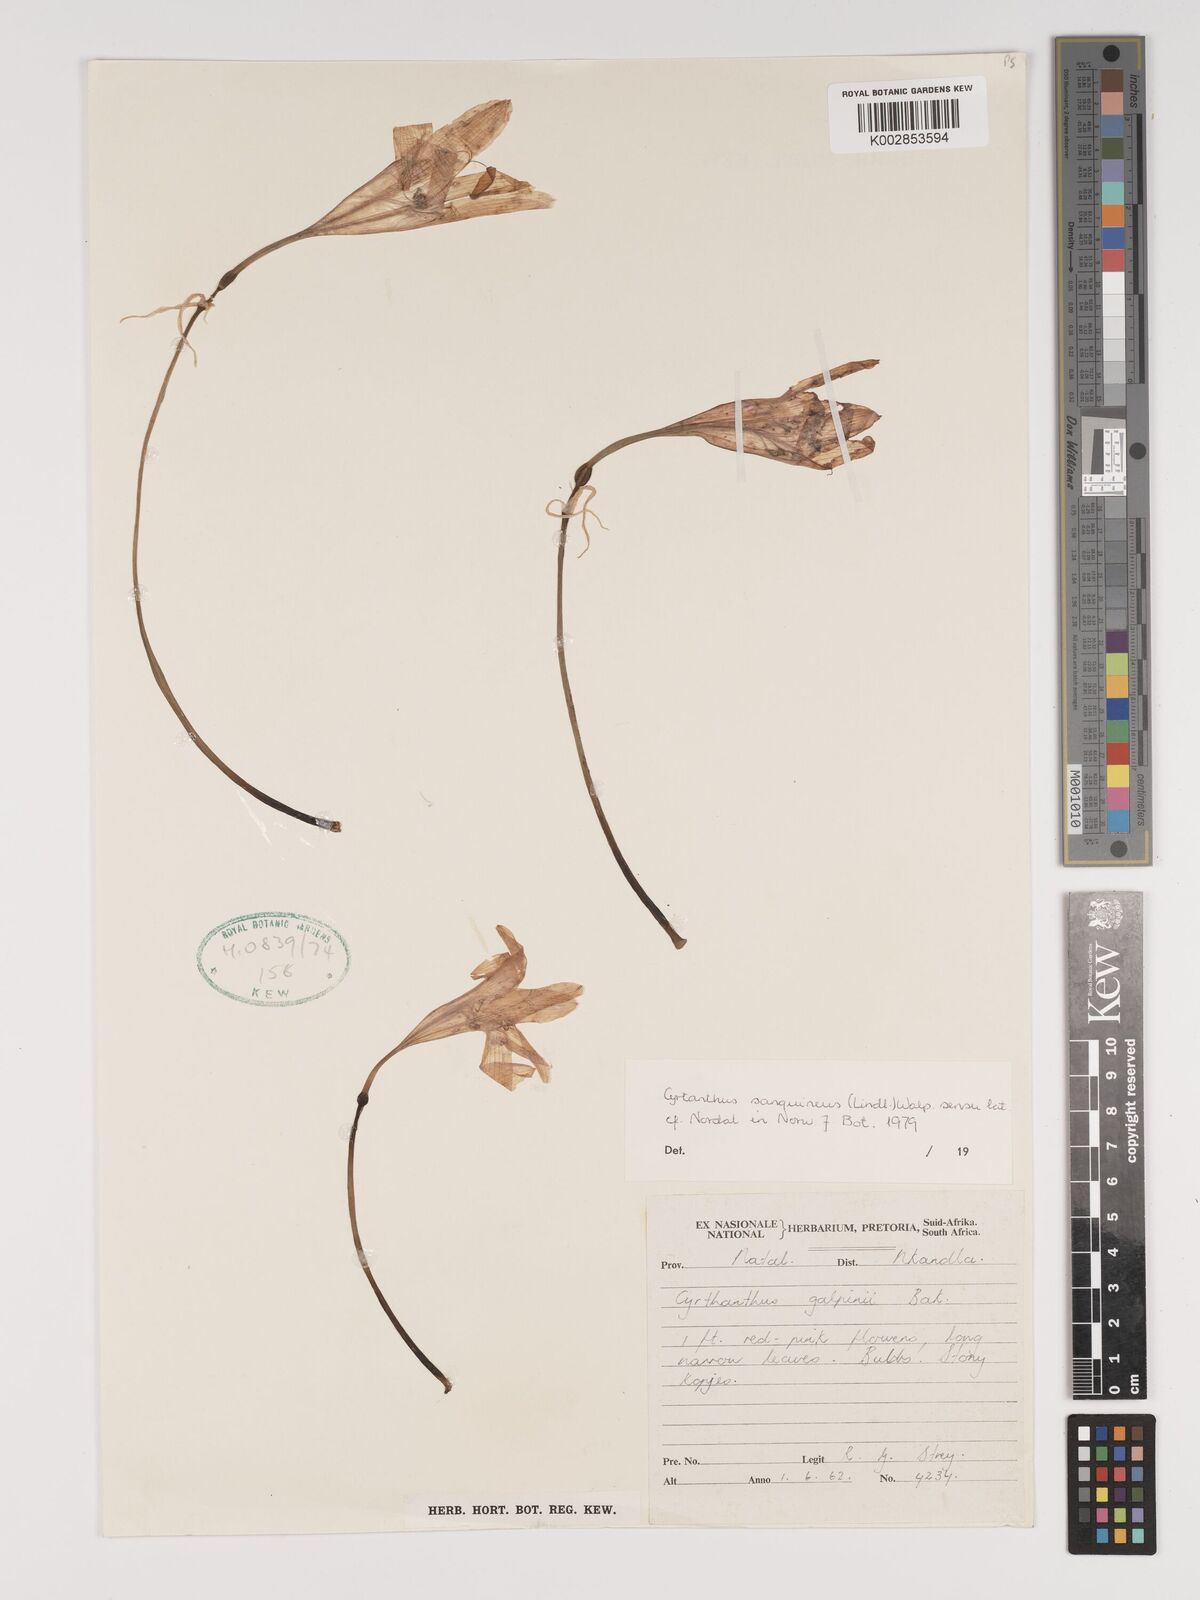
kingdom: Plantae
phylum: Tracheophyta
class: Liliopsida
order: Asparagales
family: Amaryllidaceae
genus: Cyrtanthus
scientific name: Cyrtanthus sanguineus
